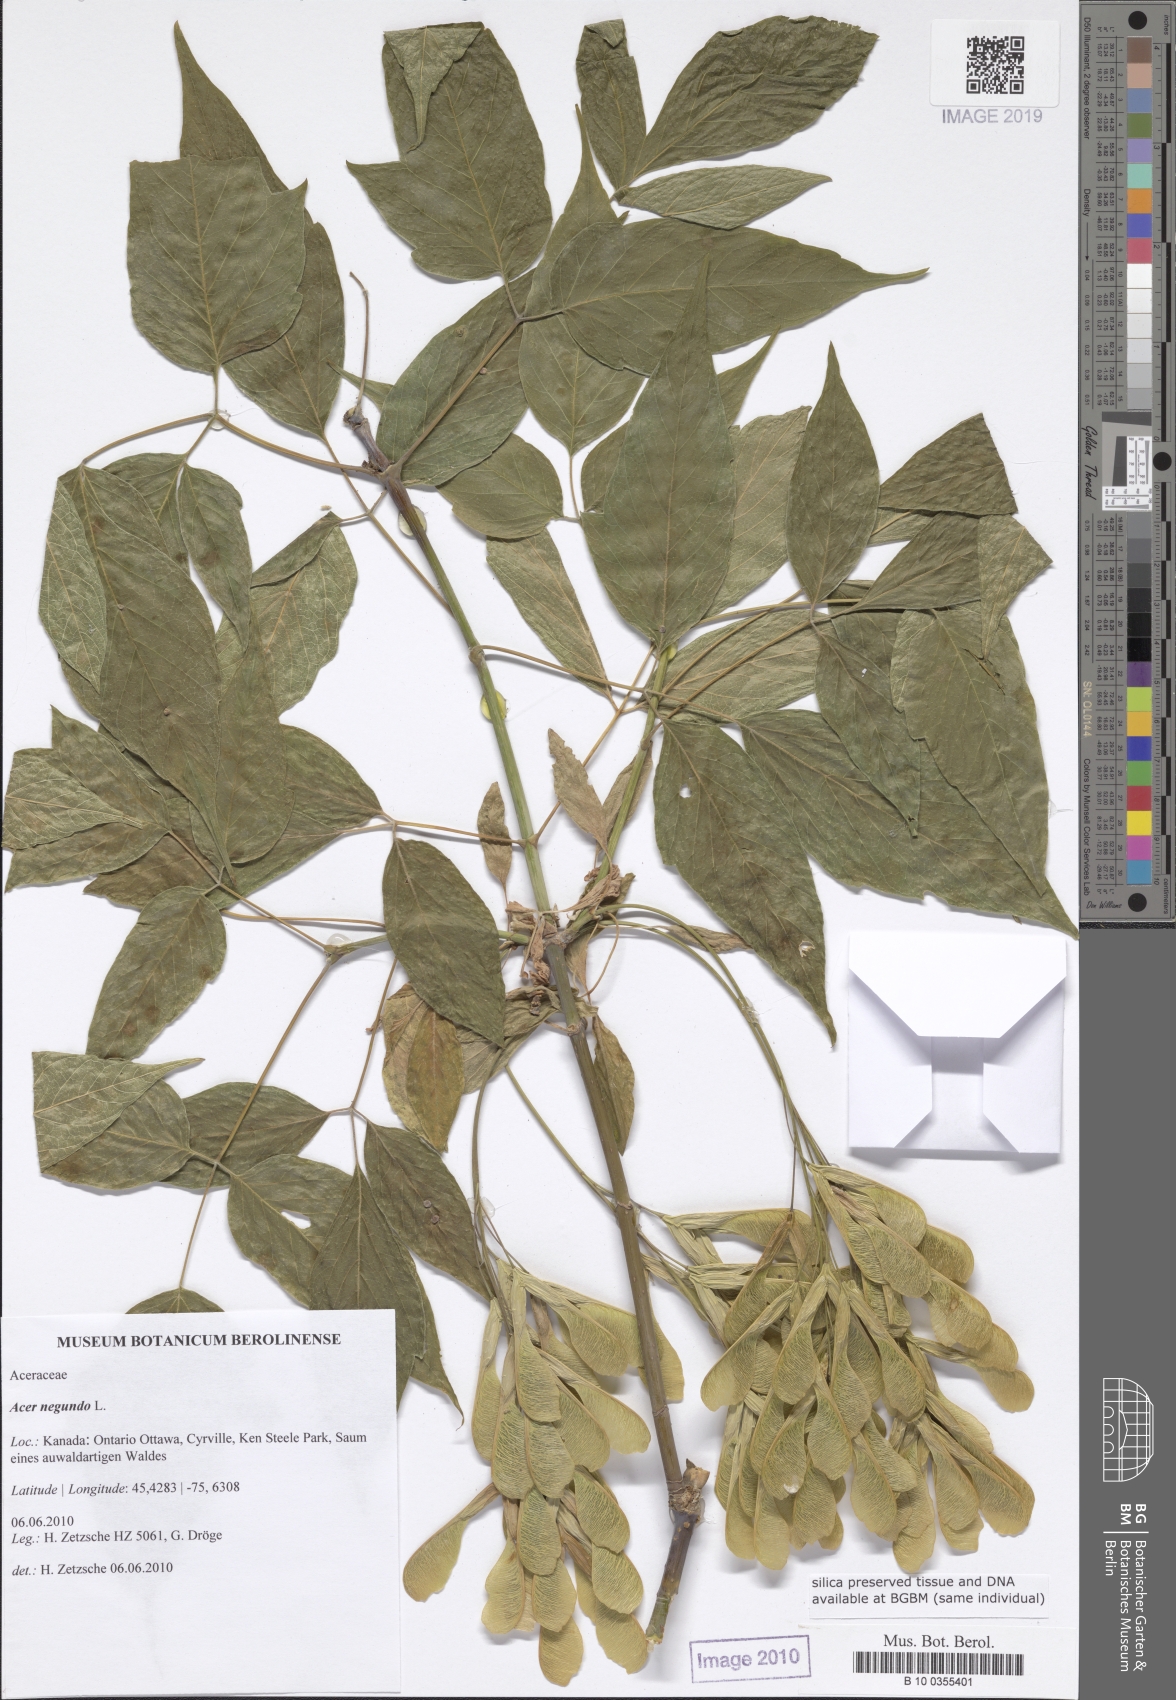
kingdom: Plantae
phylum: Tracheophyta
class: Magnoliopsida
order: Sapindales
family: Sapindaceae
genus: Acer
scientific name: Acer negundo
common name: Ashleaf maple
